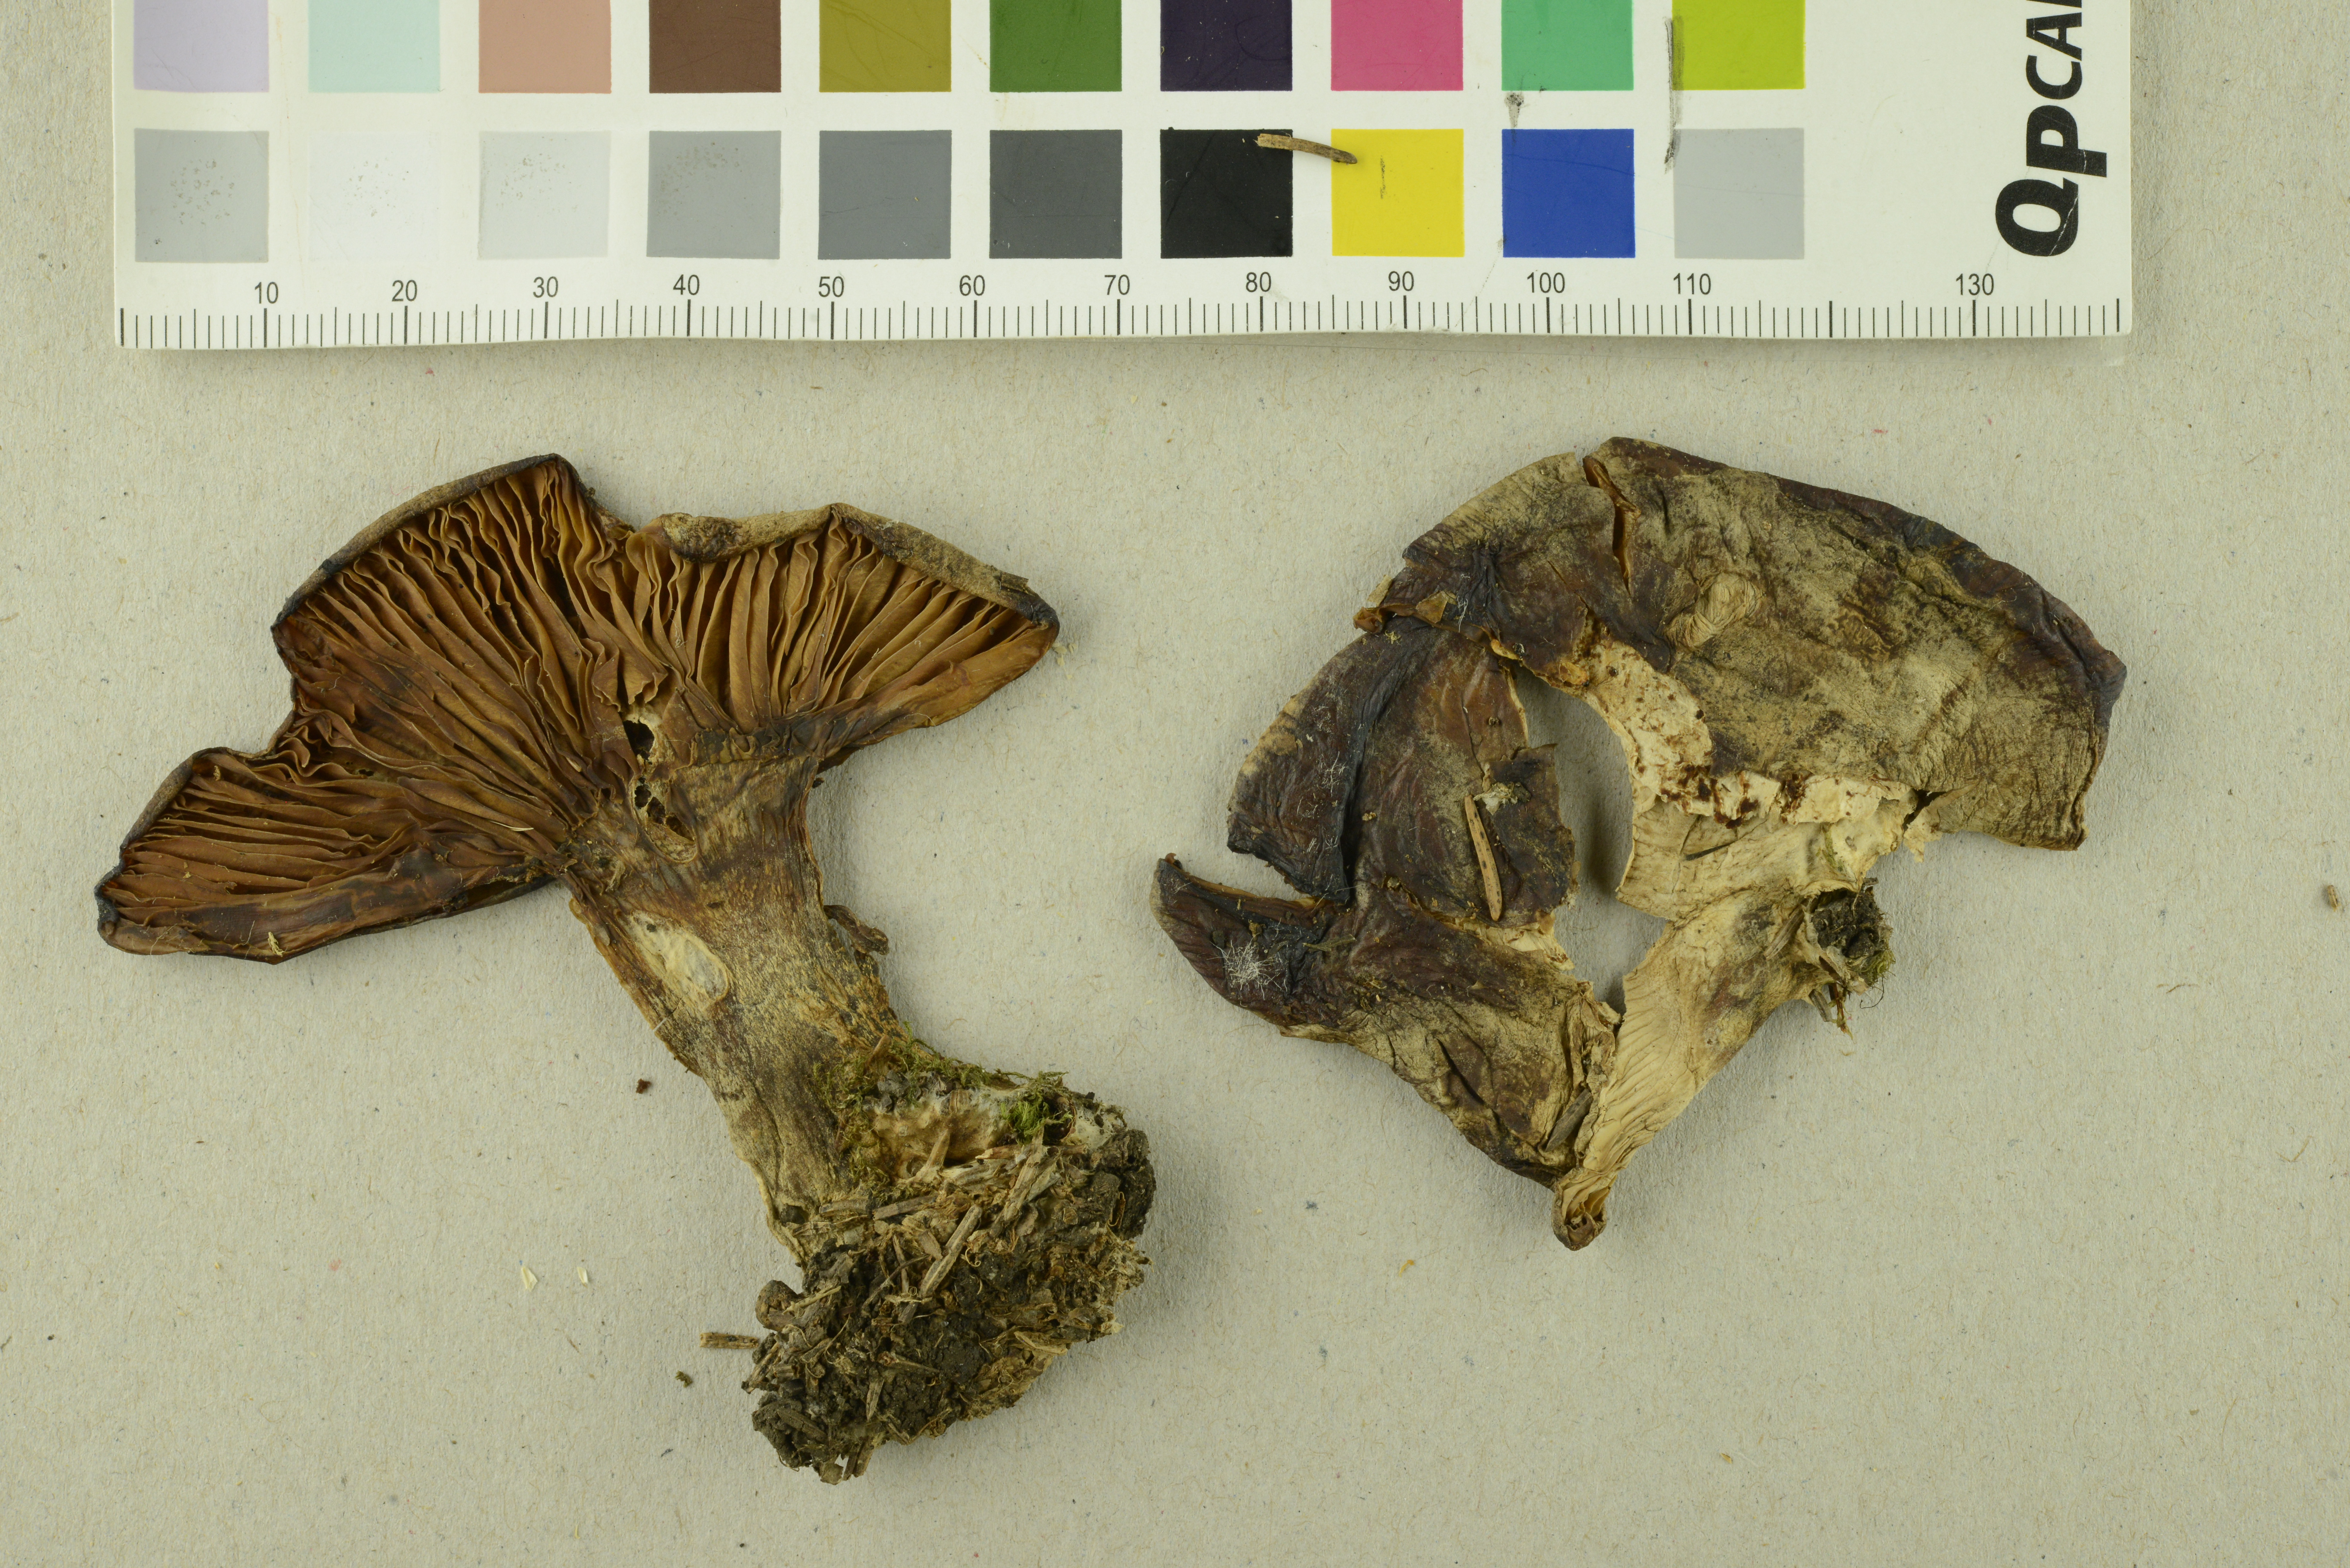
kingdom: Fungi
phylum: Basidiomycota
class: Agaricomycetes
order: Agaricales
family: Pseudoclitocybaceae
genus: Clitopaxillus
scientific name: Clitopaxillus fibulatus
